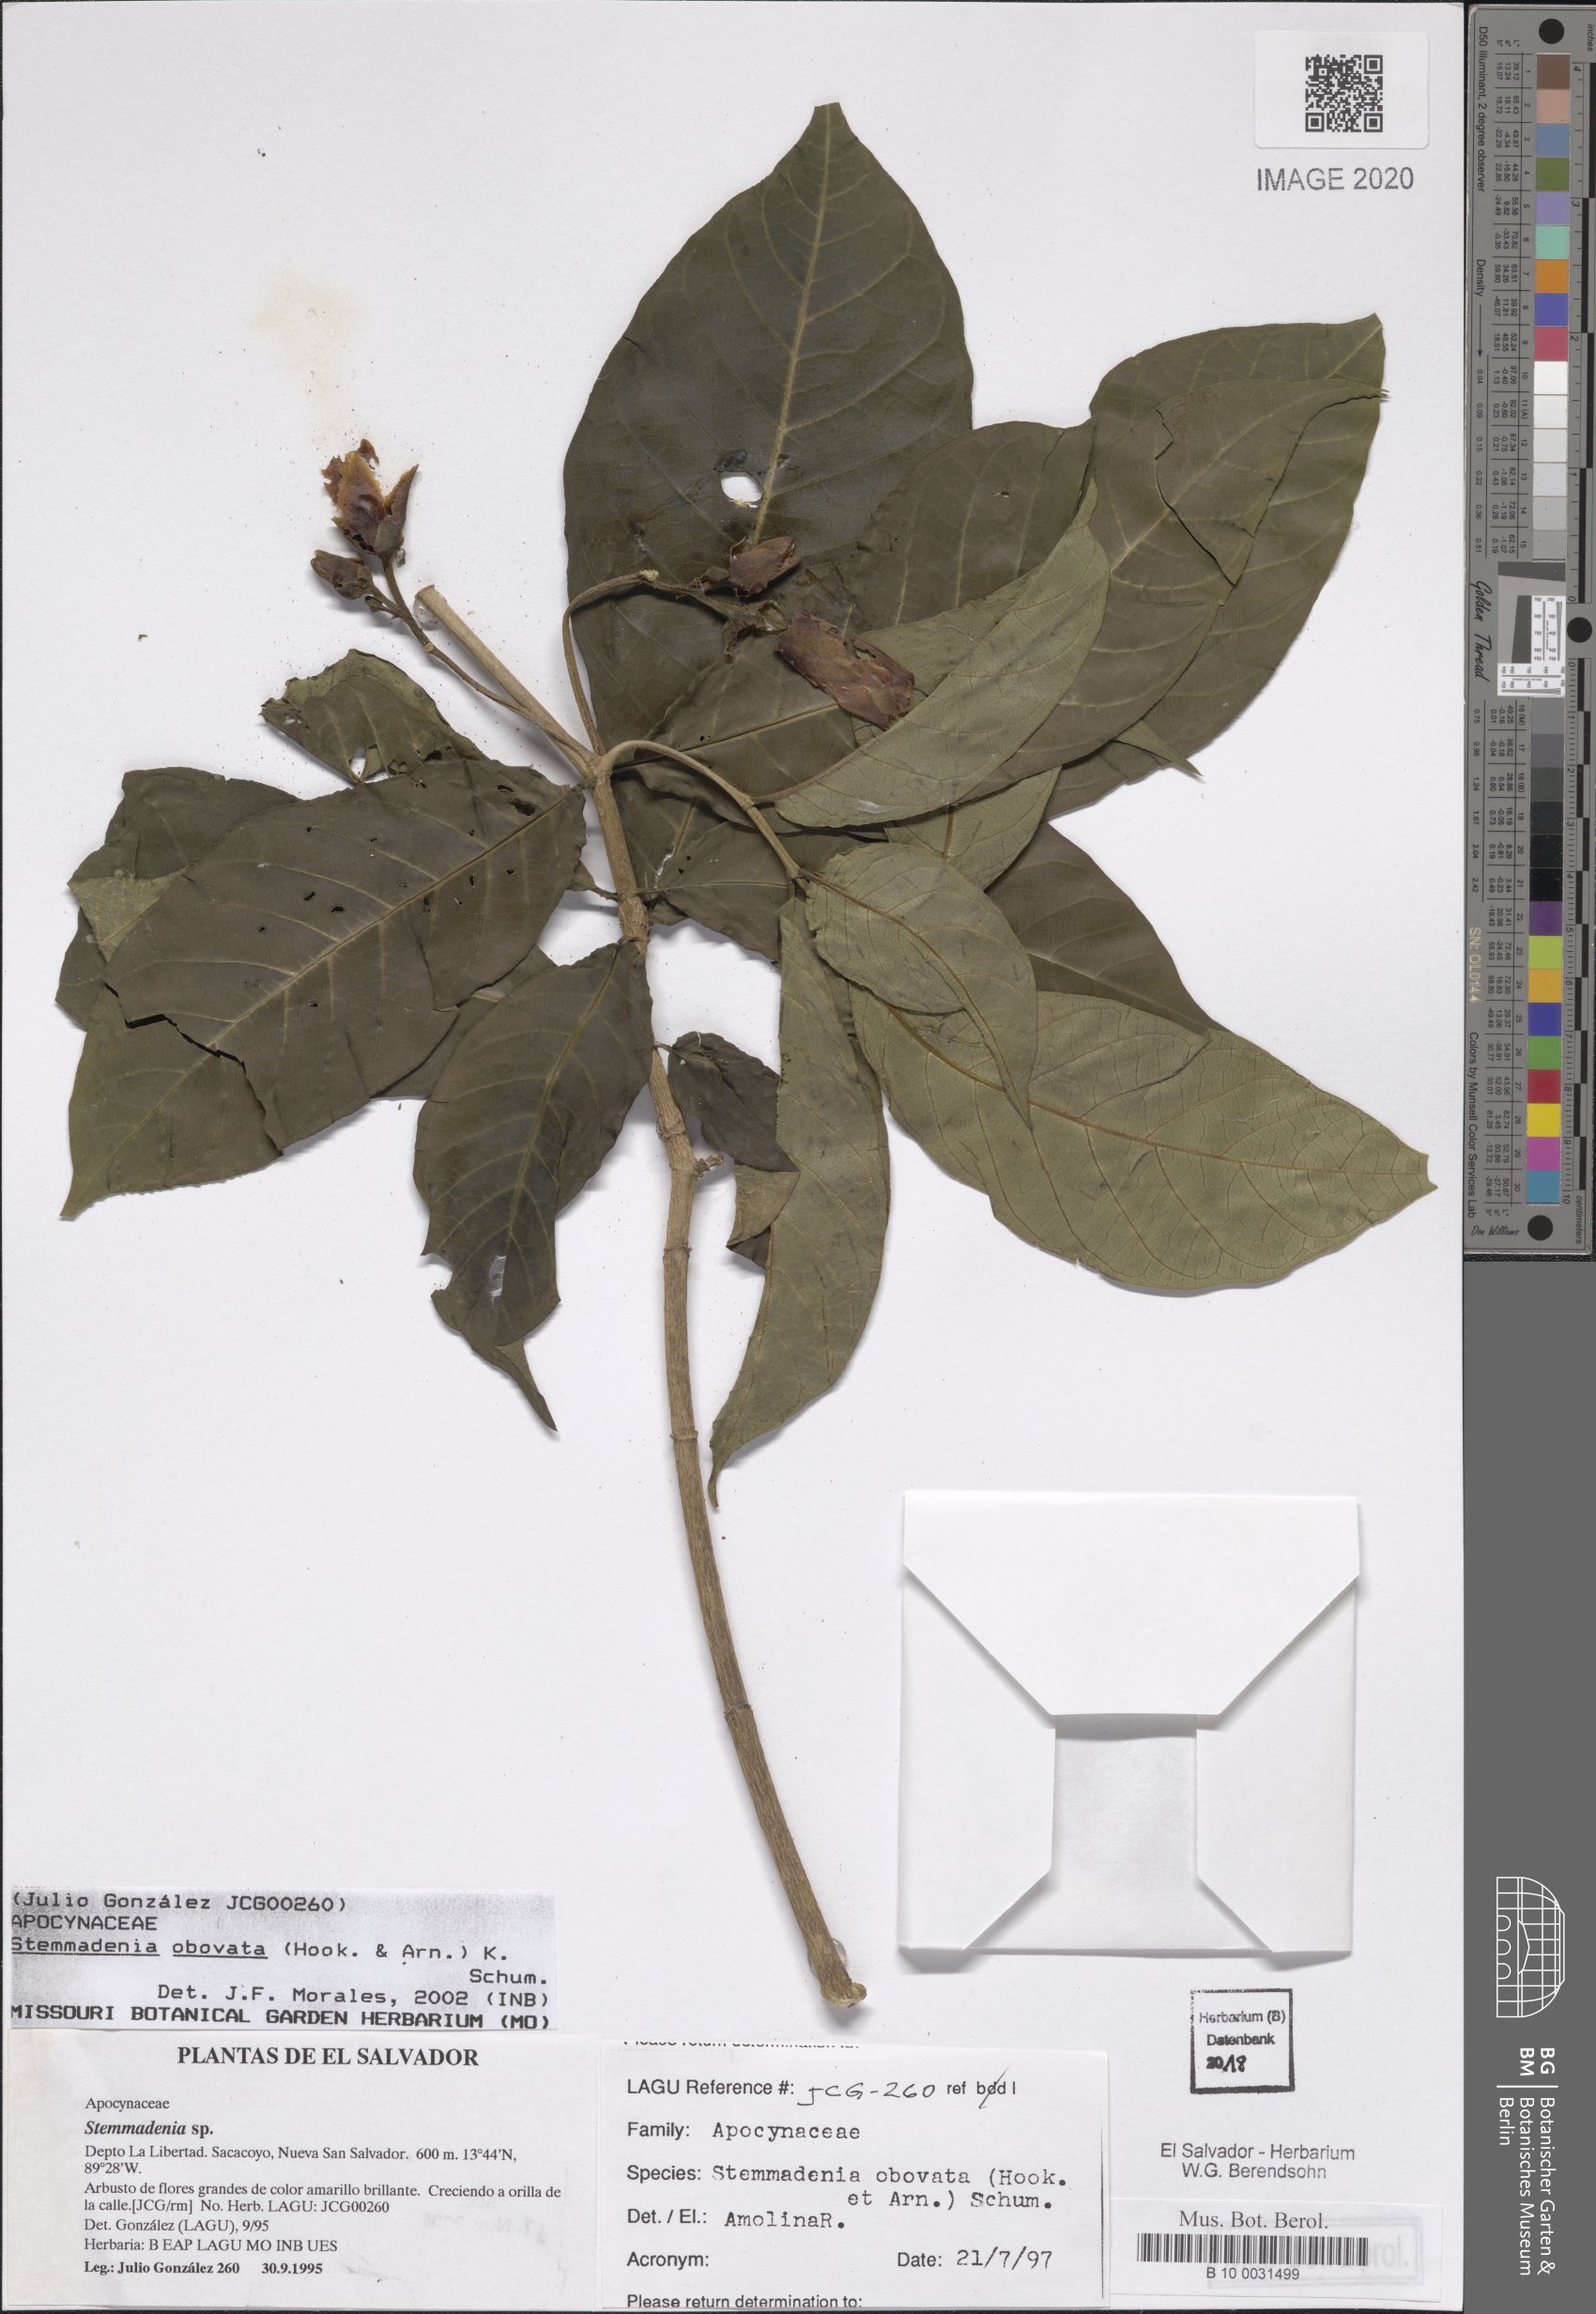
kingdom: Plantae
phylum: Tracheophyta
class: Magnoliopsida
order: Gentianales
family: Apocynaceae
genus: Tabernaemontana
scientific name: Tabernaemontana glabra
